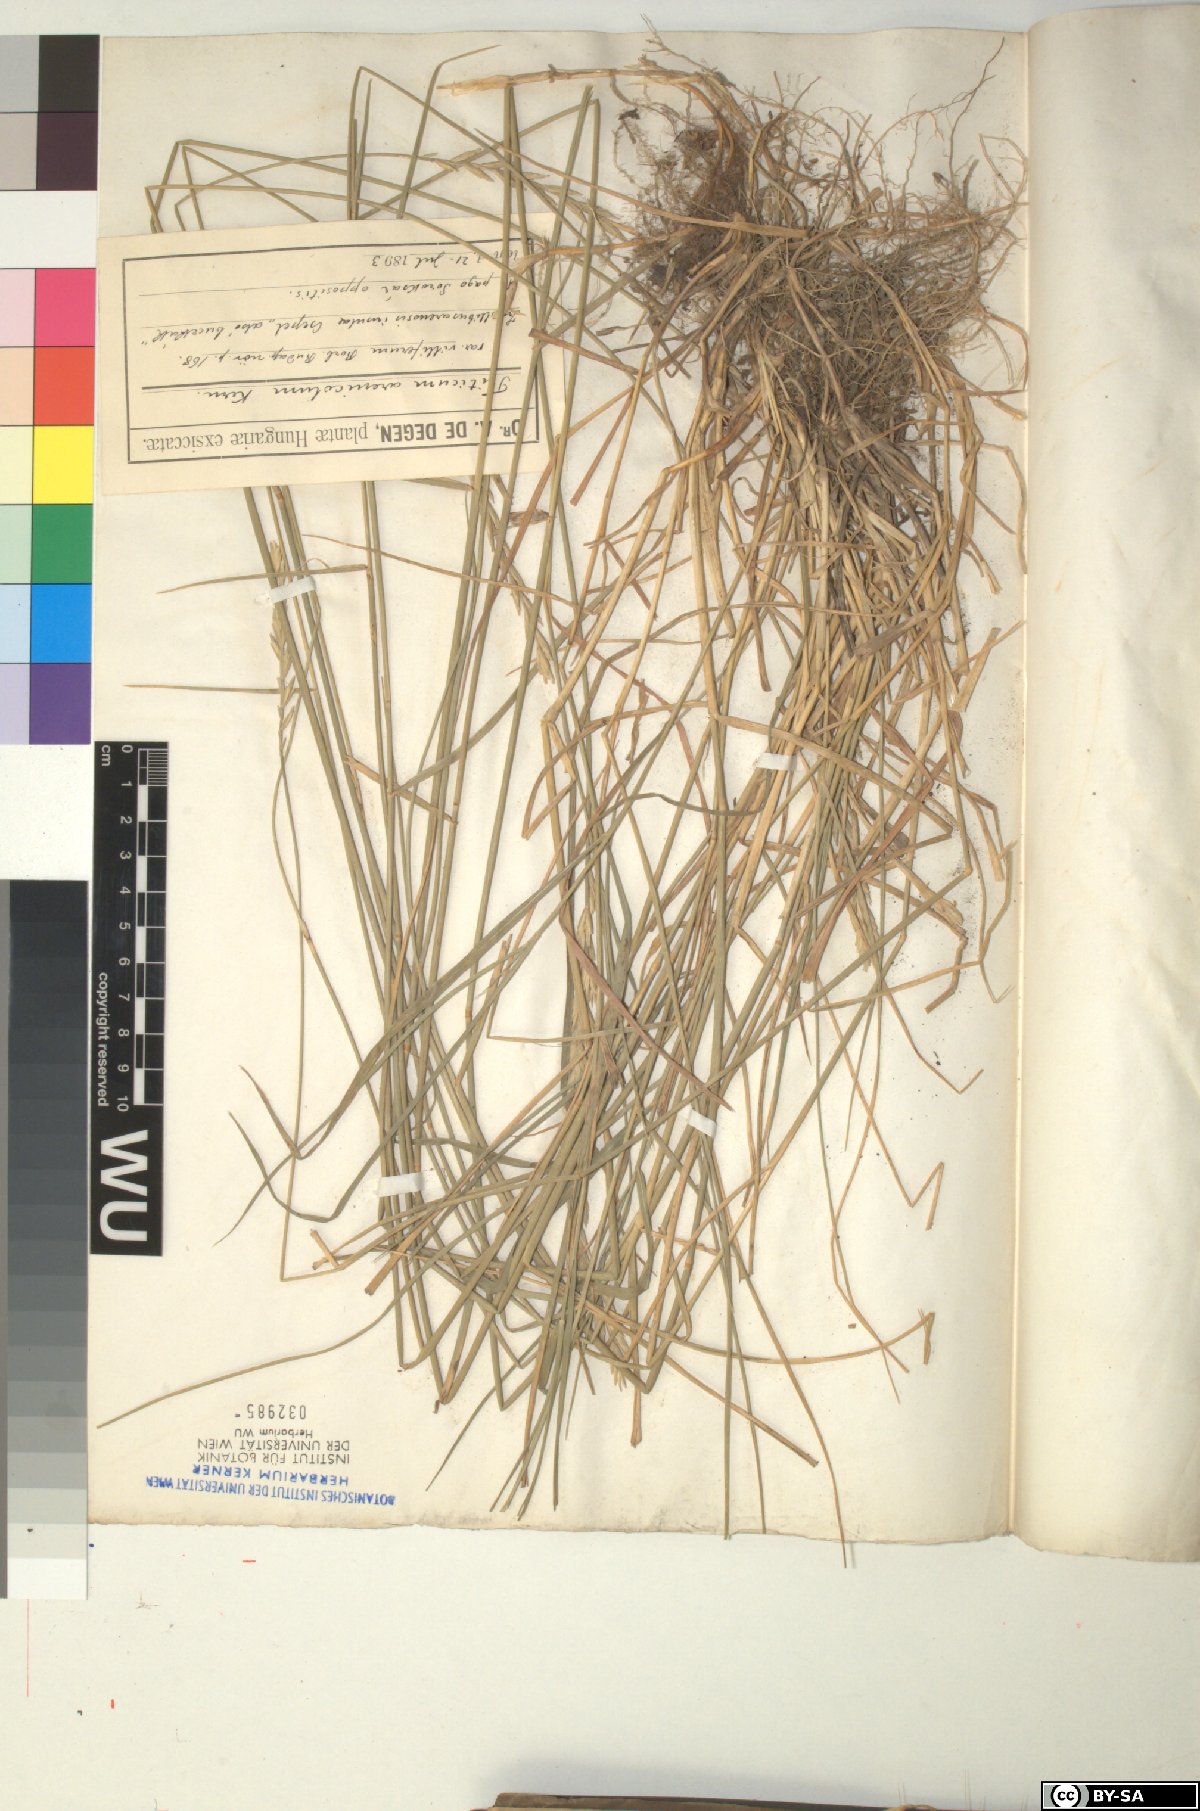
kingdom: Plantae
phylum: Tracheophyta
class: Liliopsida
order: Poales
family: Poaceae
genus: Thinopyrum
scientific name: Thinopyrum intermedium
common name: Intermediate wheatgrass
